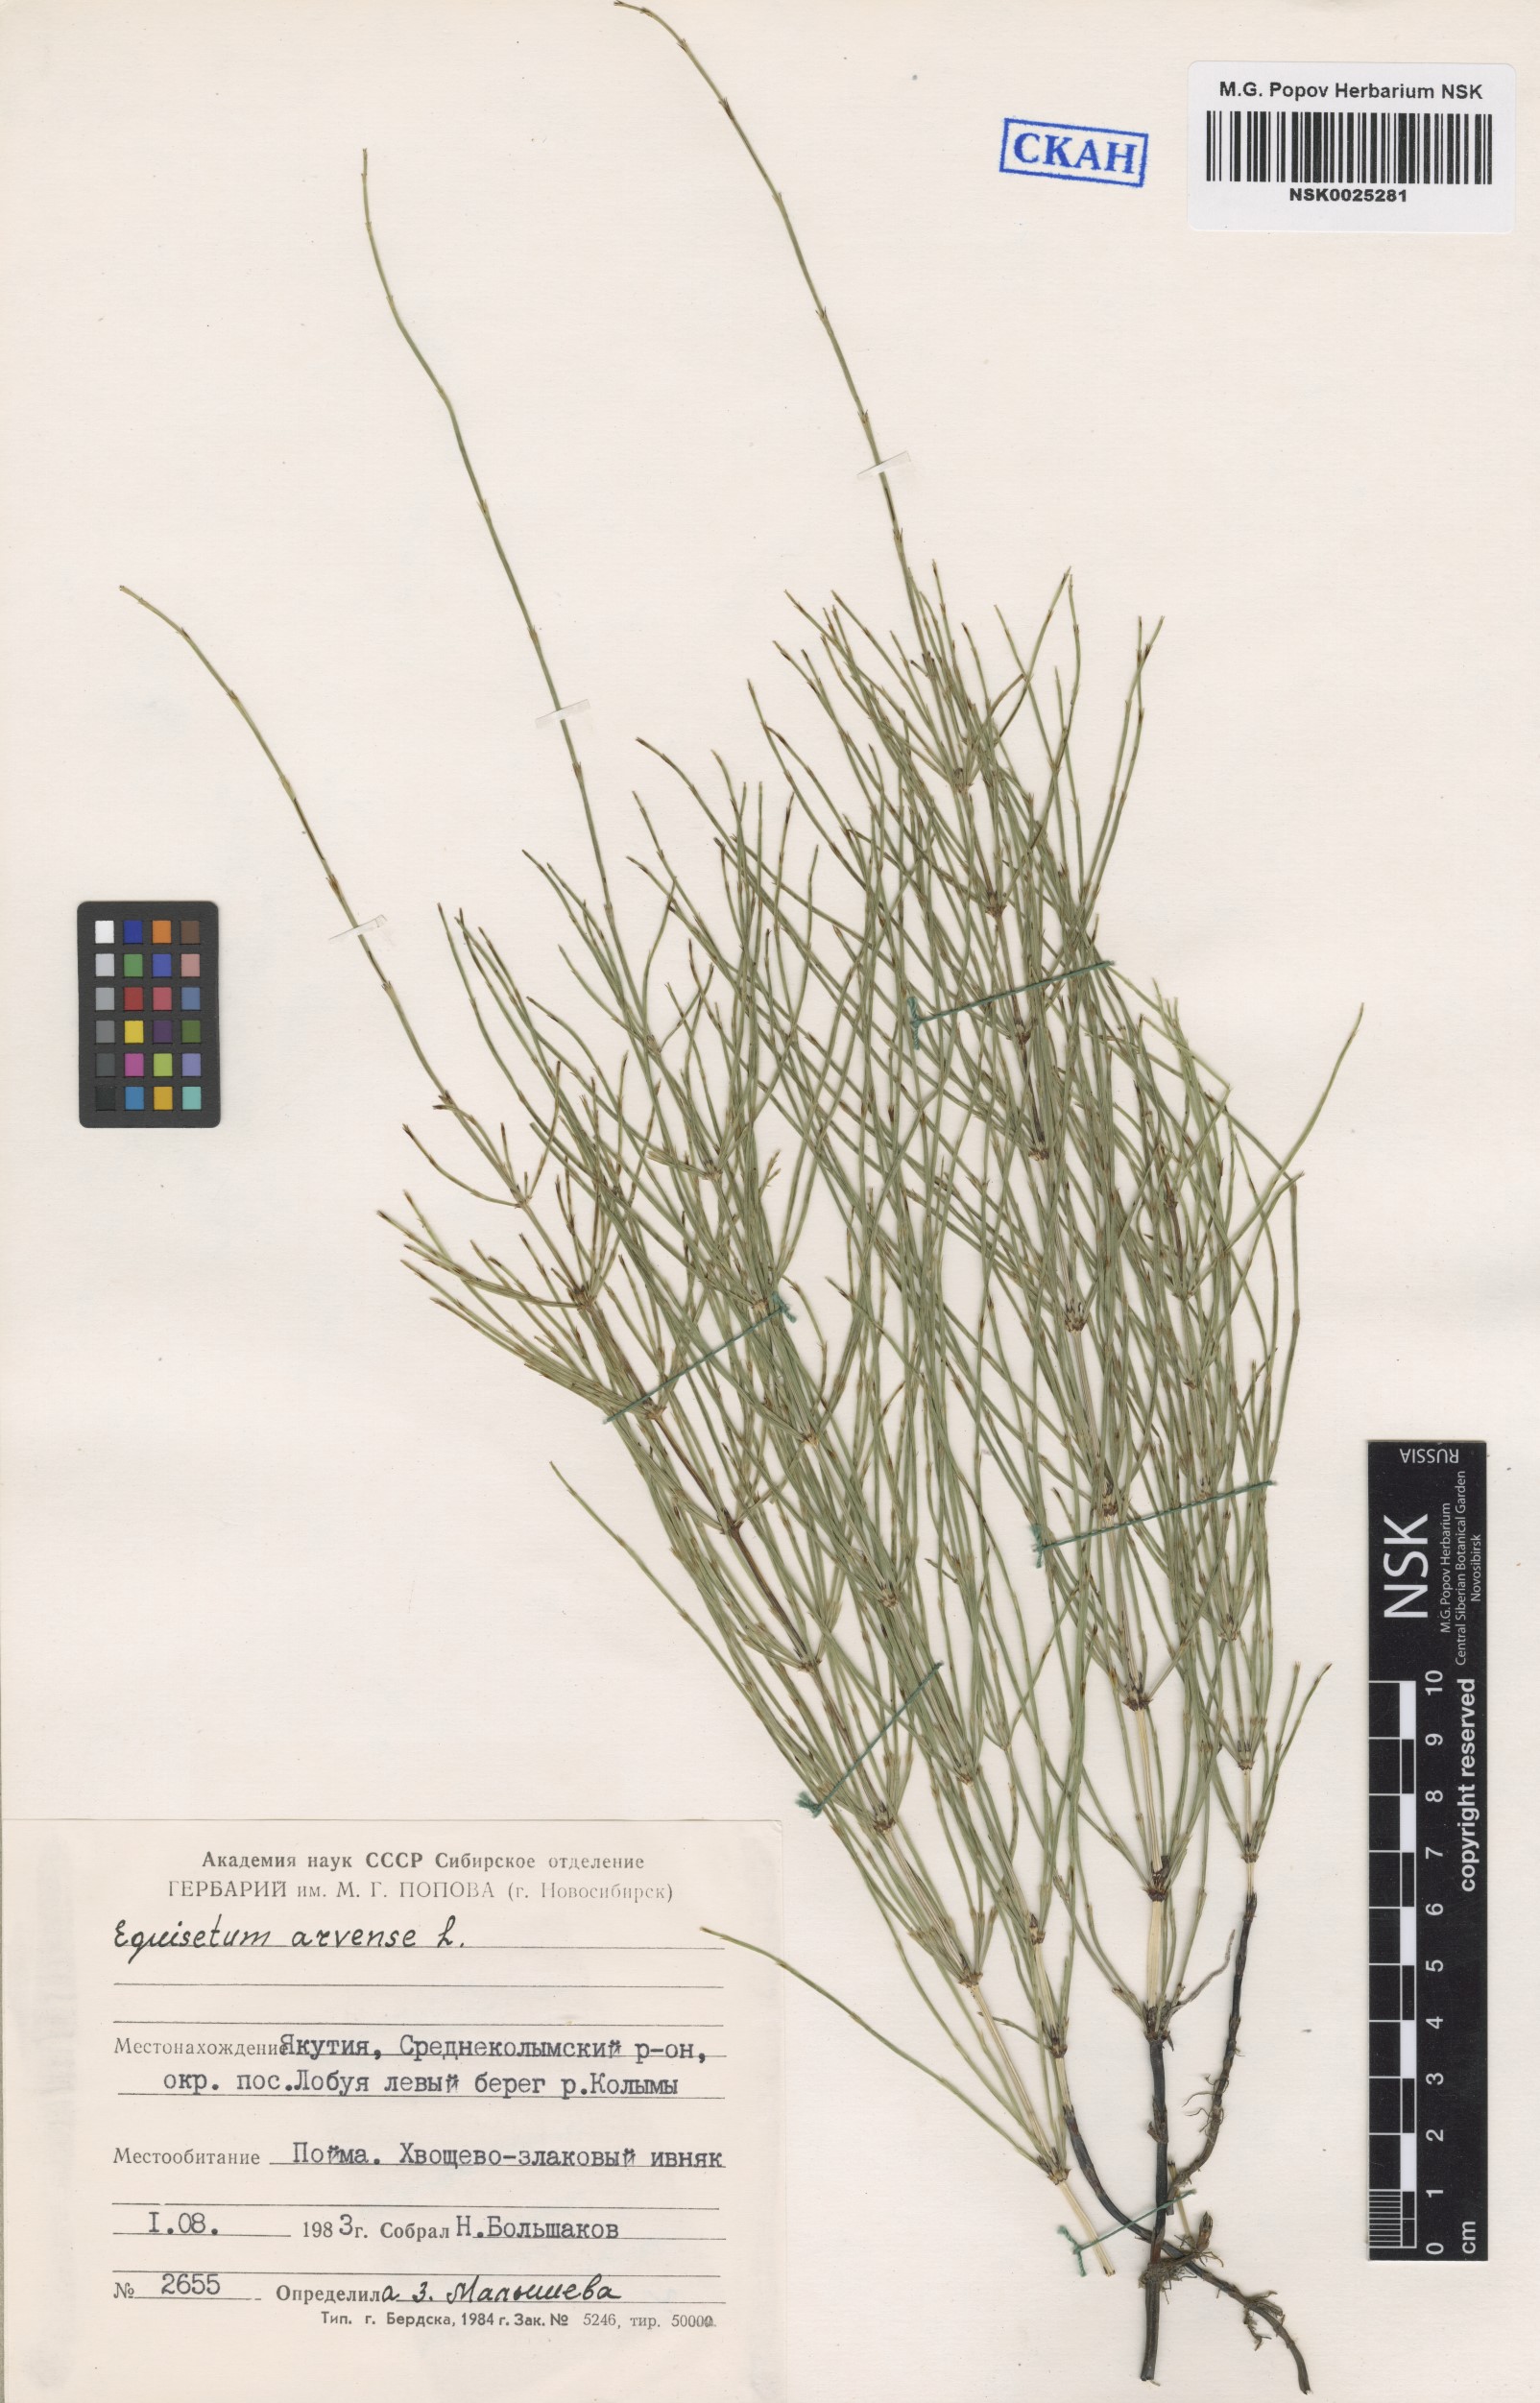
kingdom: Plantae
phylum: Tracheophyta
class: Polypodiopsida
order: Equisetales
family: Equisetaceae
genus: Equisetum
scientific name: Equisetum arvense
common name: Field horsetail
